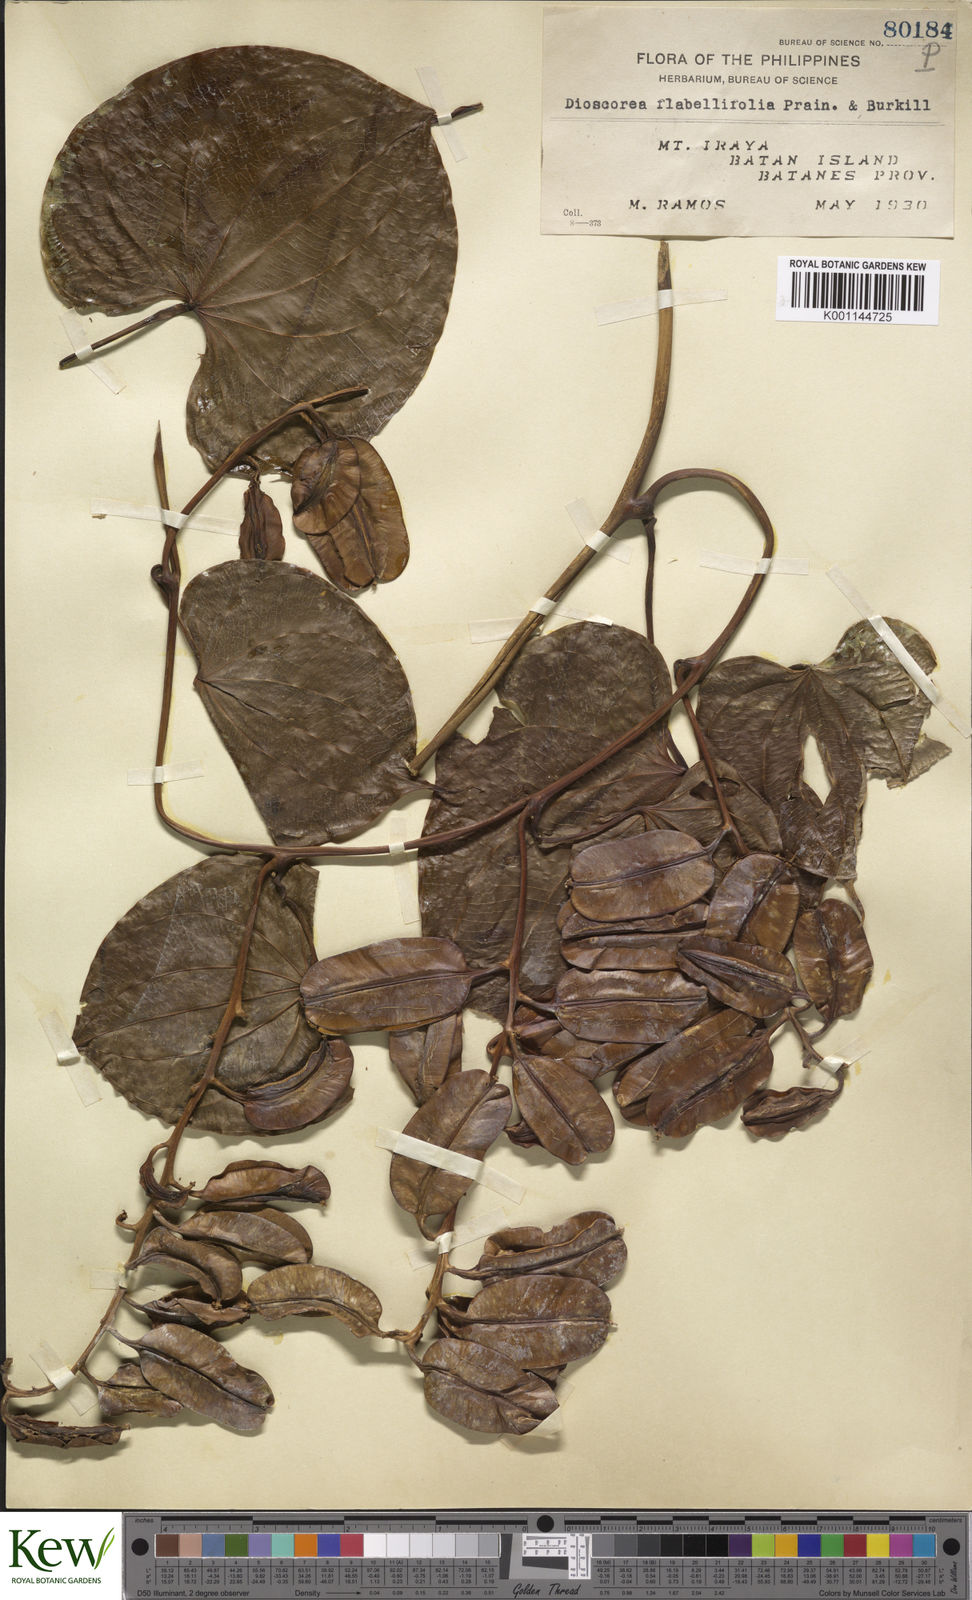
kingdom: Plantae
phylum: Tracheophyta
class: Liliopsida
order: Dioscoreales
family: Dioscoreaceae
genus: Dioscorea
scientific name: Dioscorea flabellifolia
